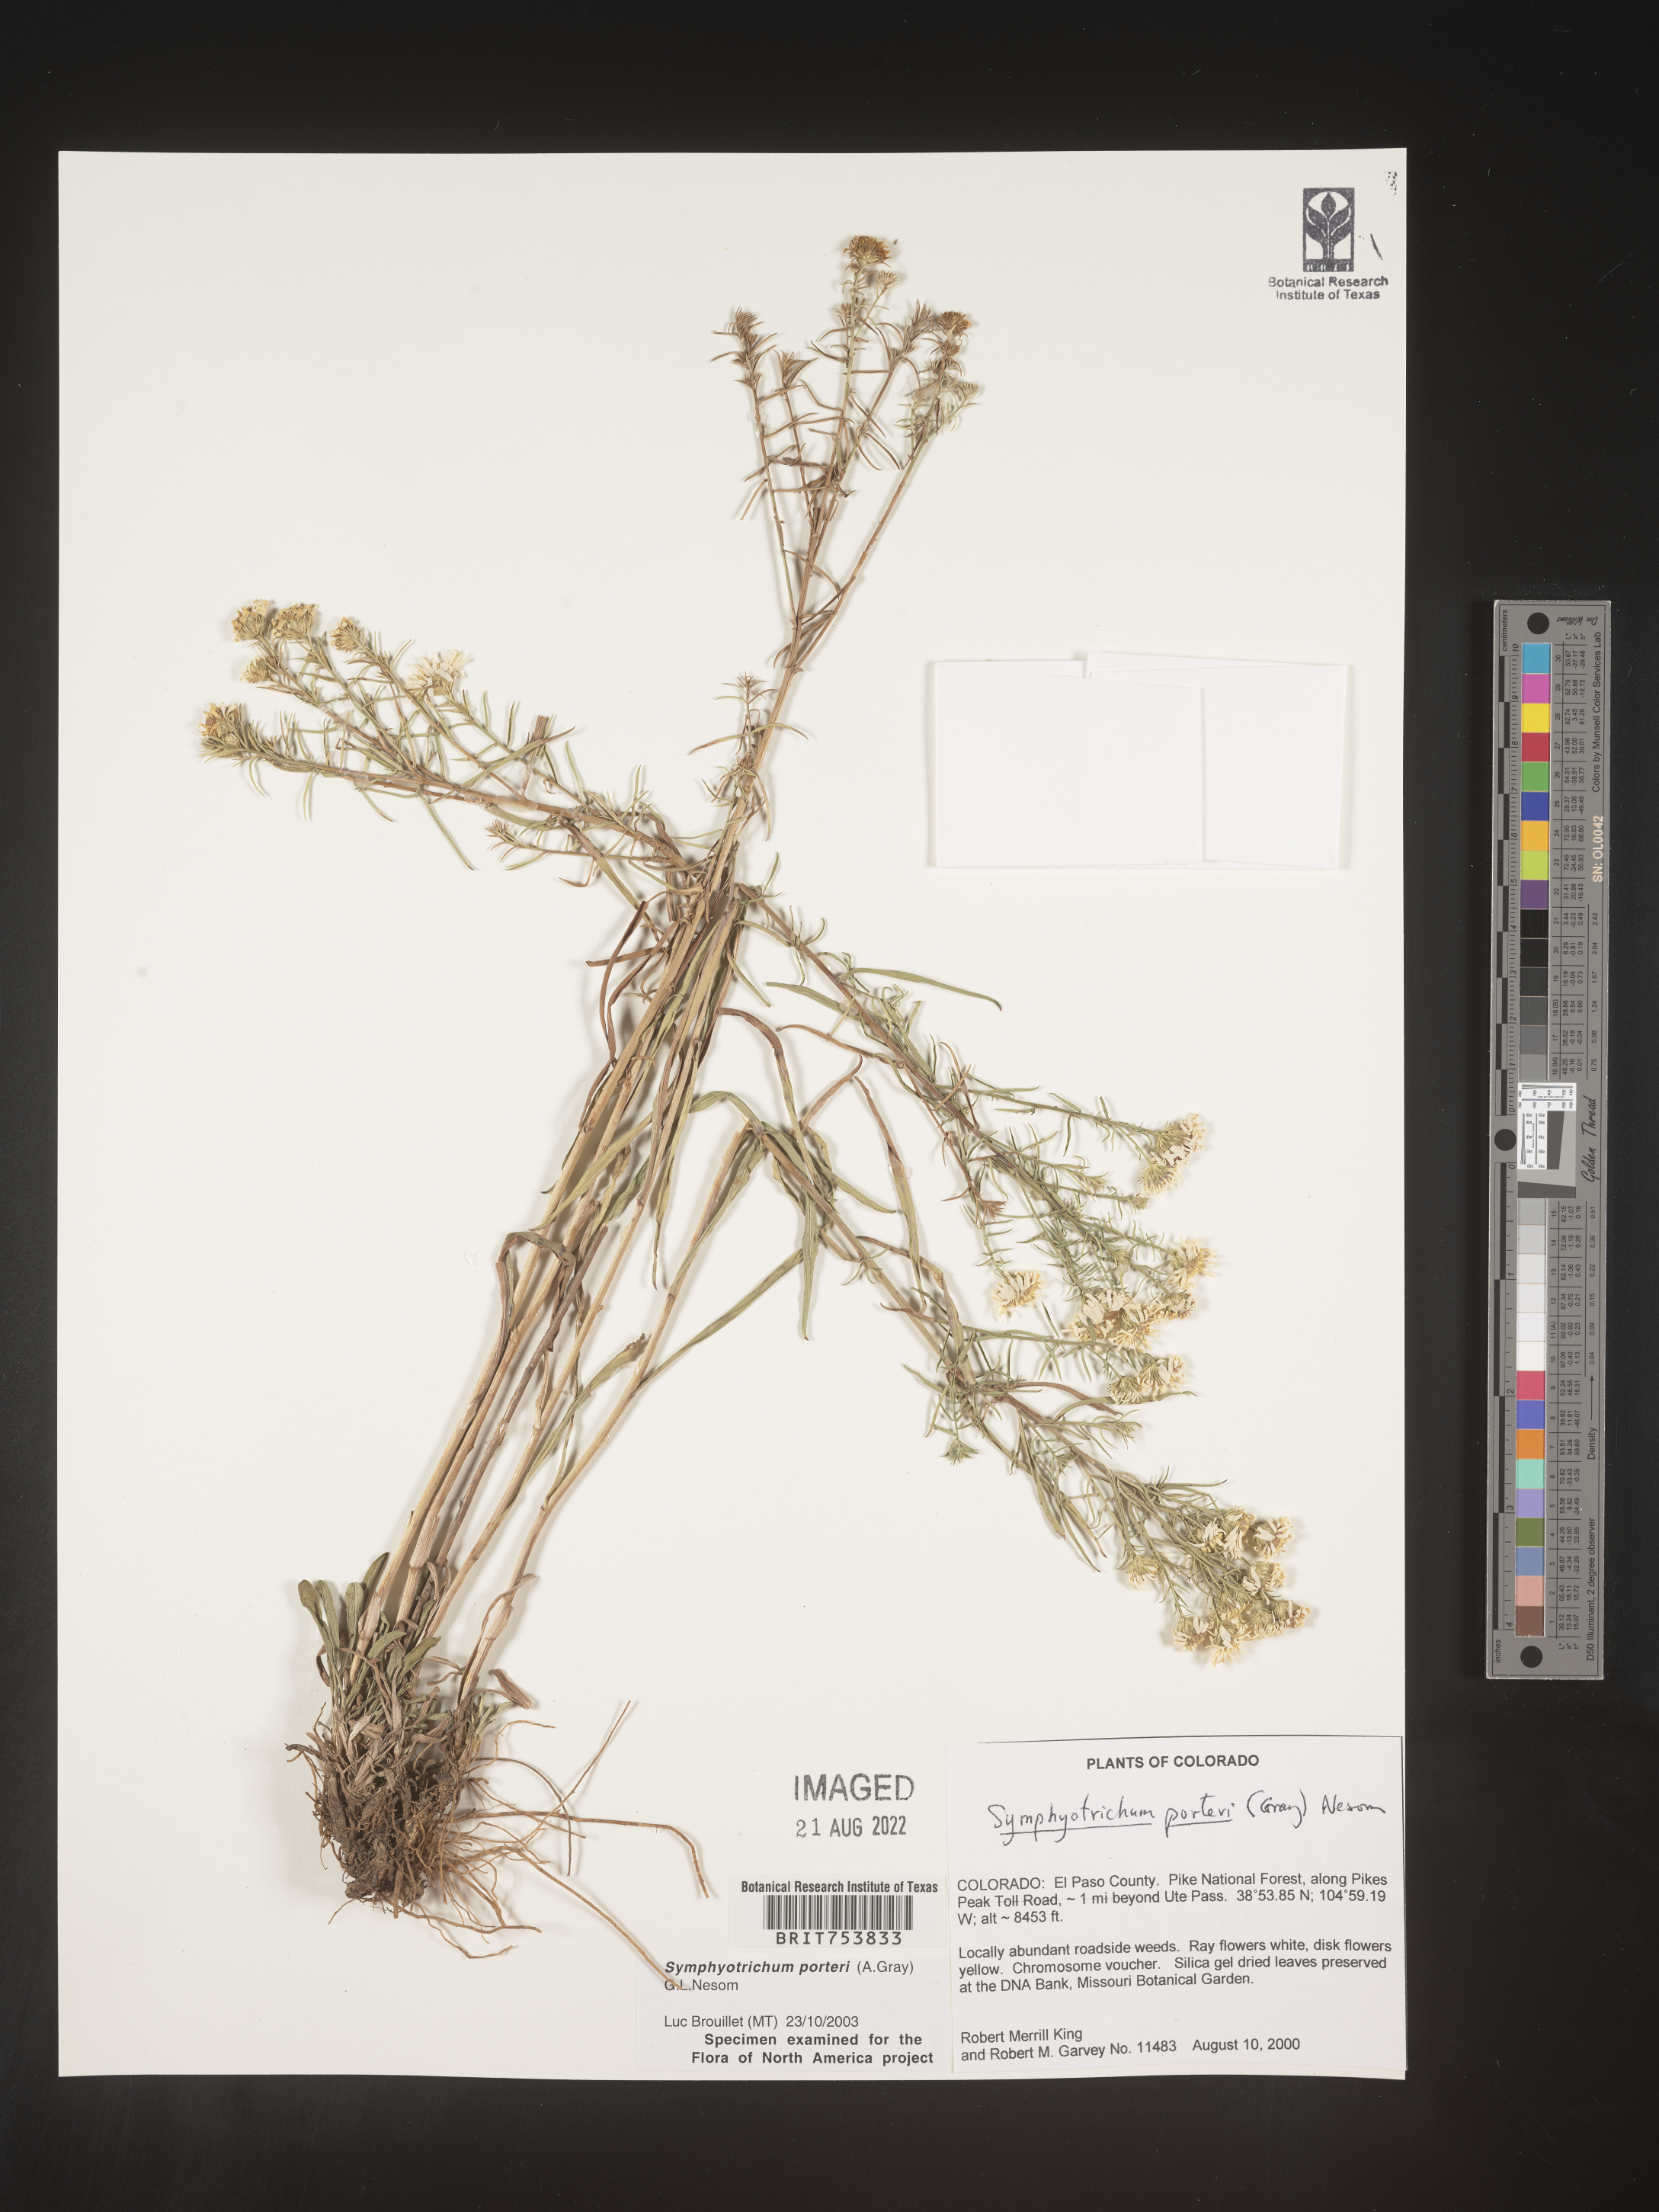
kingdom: Plantae
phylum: Tracheophyta
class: Magnoliopsida
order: Asterales
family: Asteraceae
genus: Symphyotrichum
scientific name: Symphyotrichum porteri
